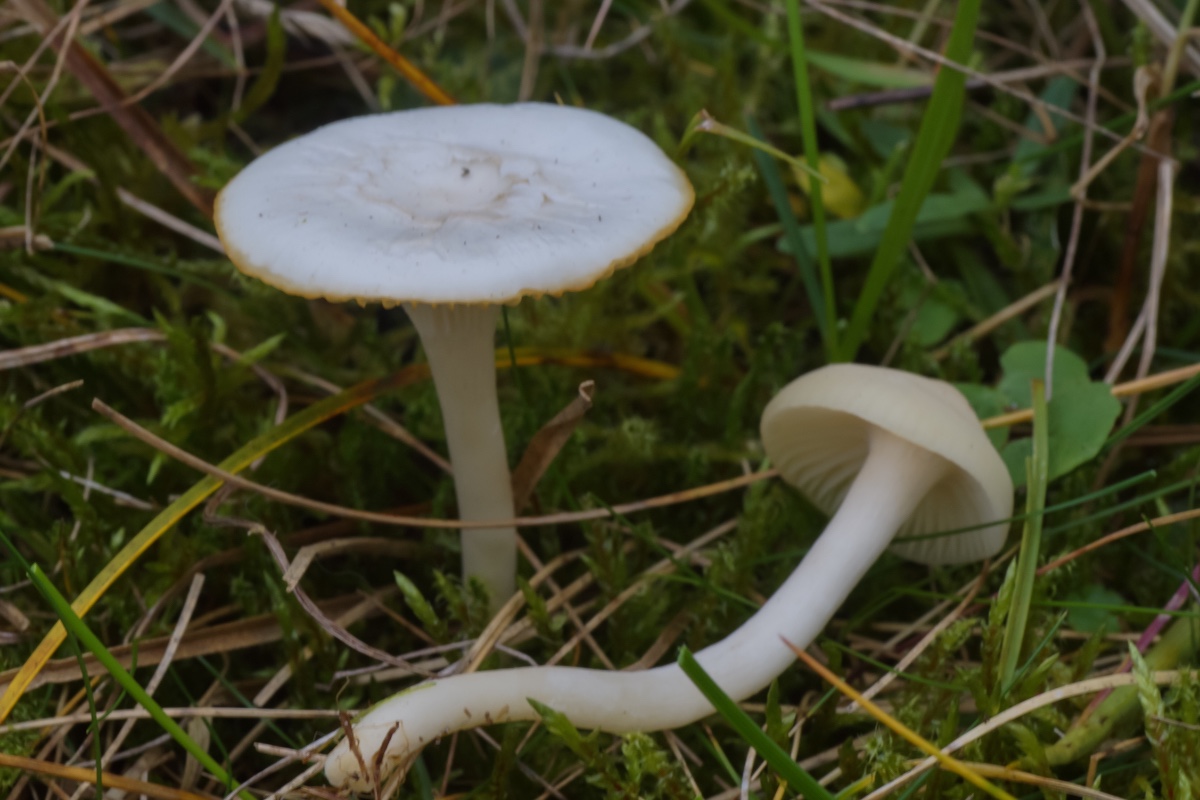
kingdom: Fungi
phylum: Basidiomycota
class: Agaricomycetes
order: Agaricales
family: Hygrophoraceae
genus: Cuphophyllus
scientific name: Cuphophyllus virgineus
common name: snehvid vokshat
